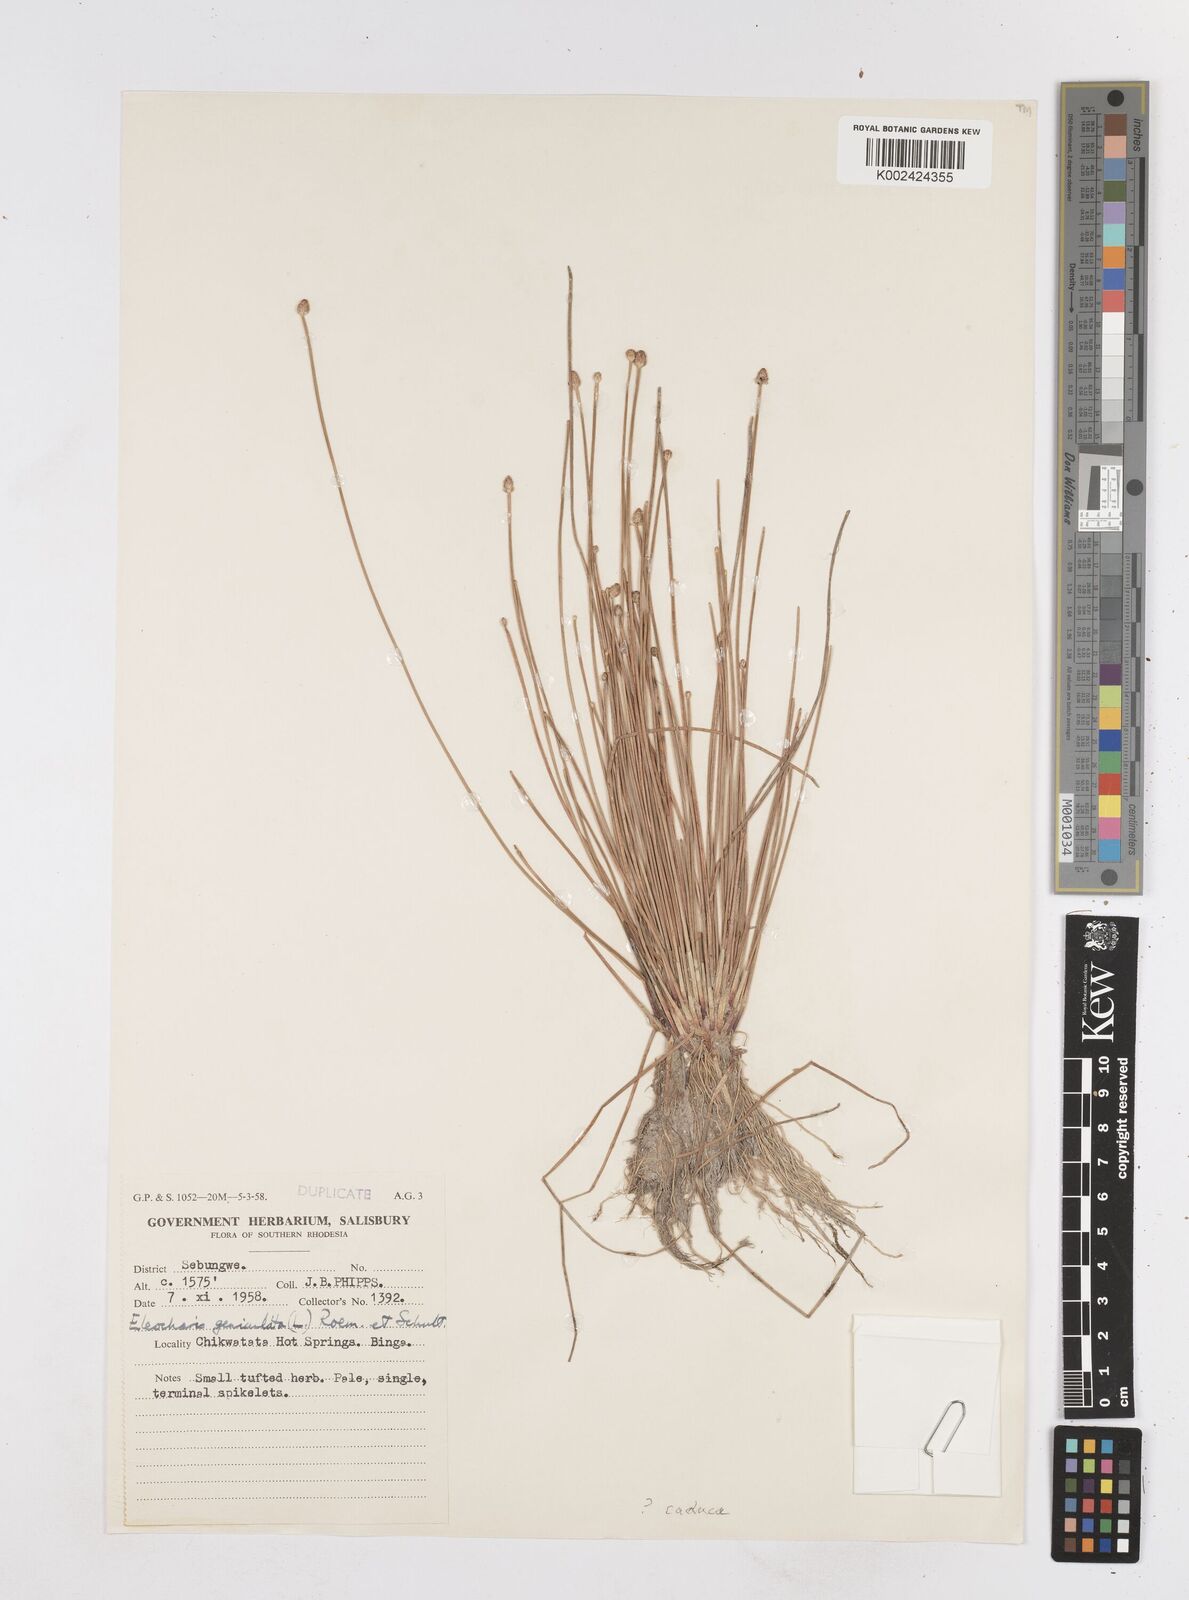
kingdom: Plantae
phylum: Tracheophyta
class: Liliopsida
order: Poales
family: Cyperaceae
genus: Eleocharis
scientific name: Eleocharis geniculata
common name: Canada spikesedge
